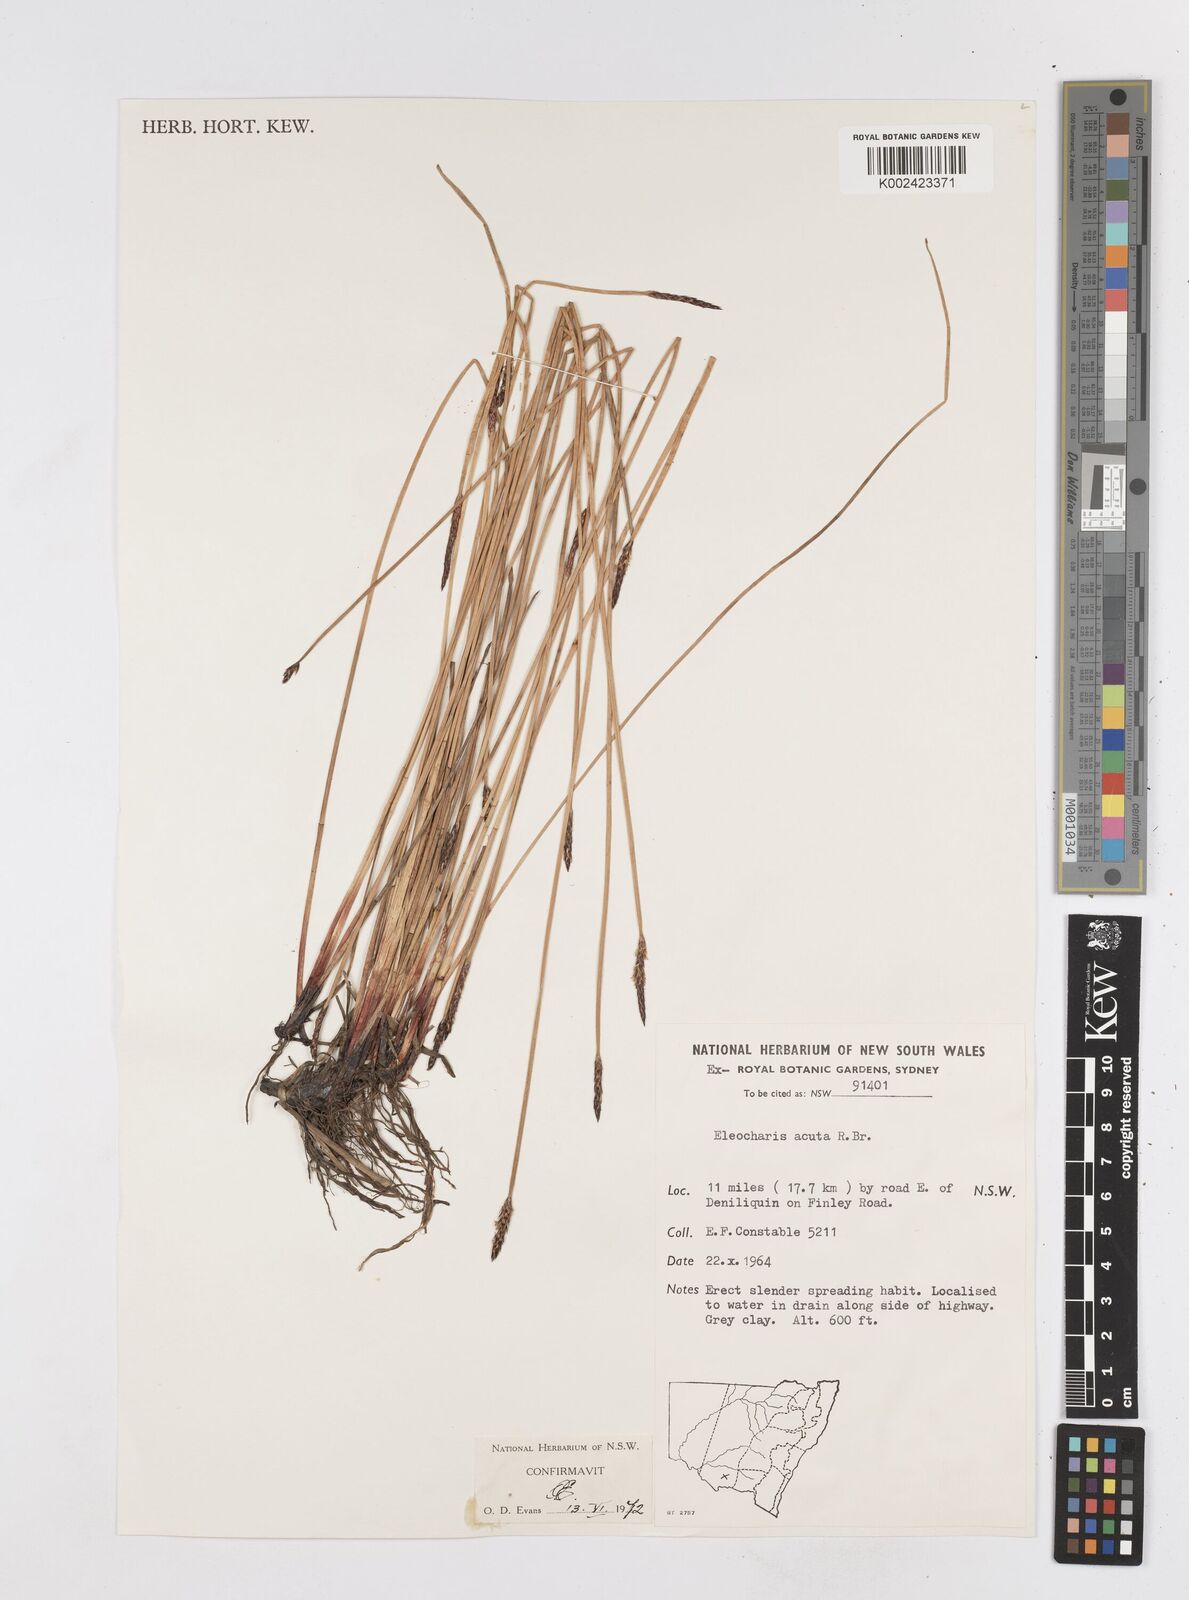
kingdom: Plantae
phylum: Tracheophyta
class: Liliopsida
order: Poales
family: Cyperaceae
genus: Eleocharis
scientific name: Eleocharis acuta
